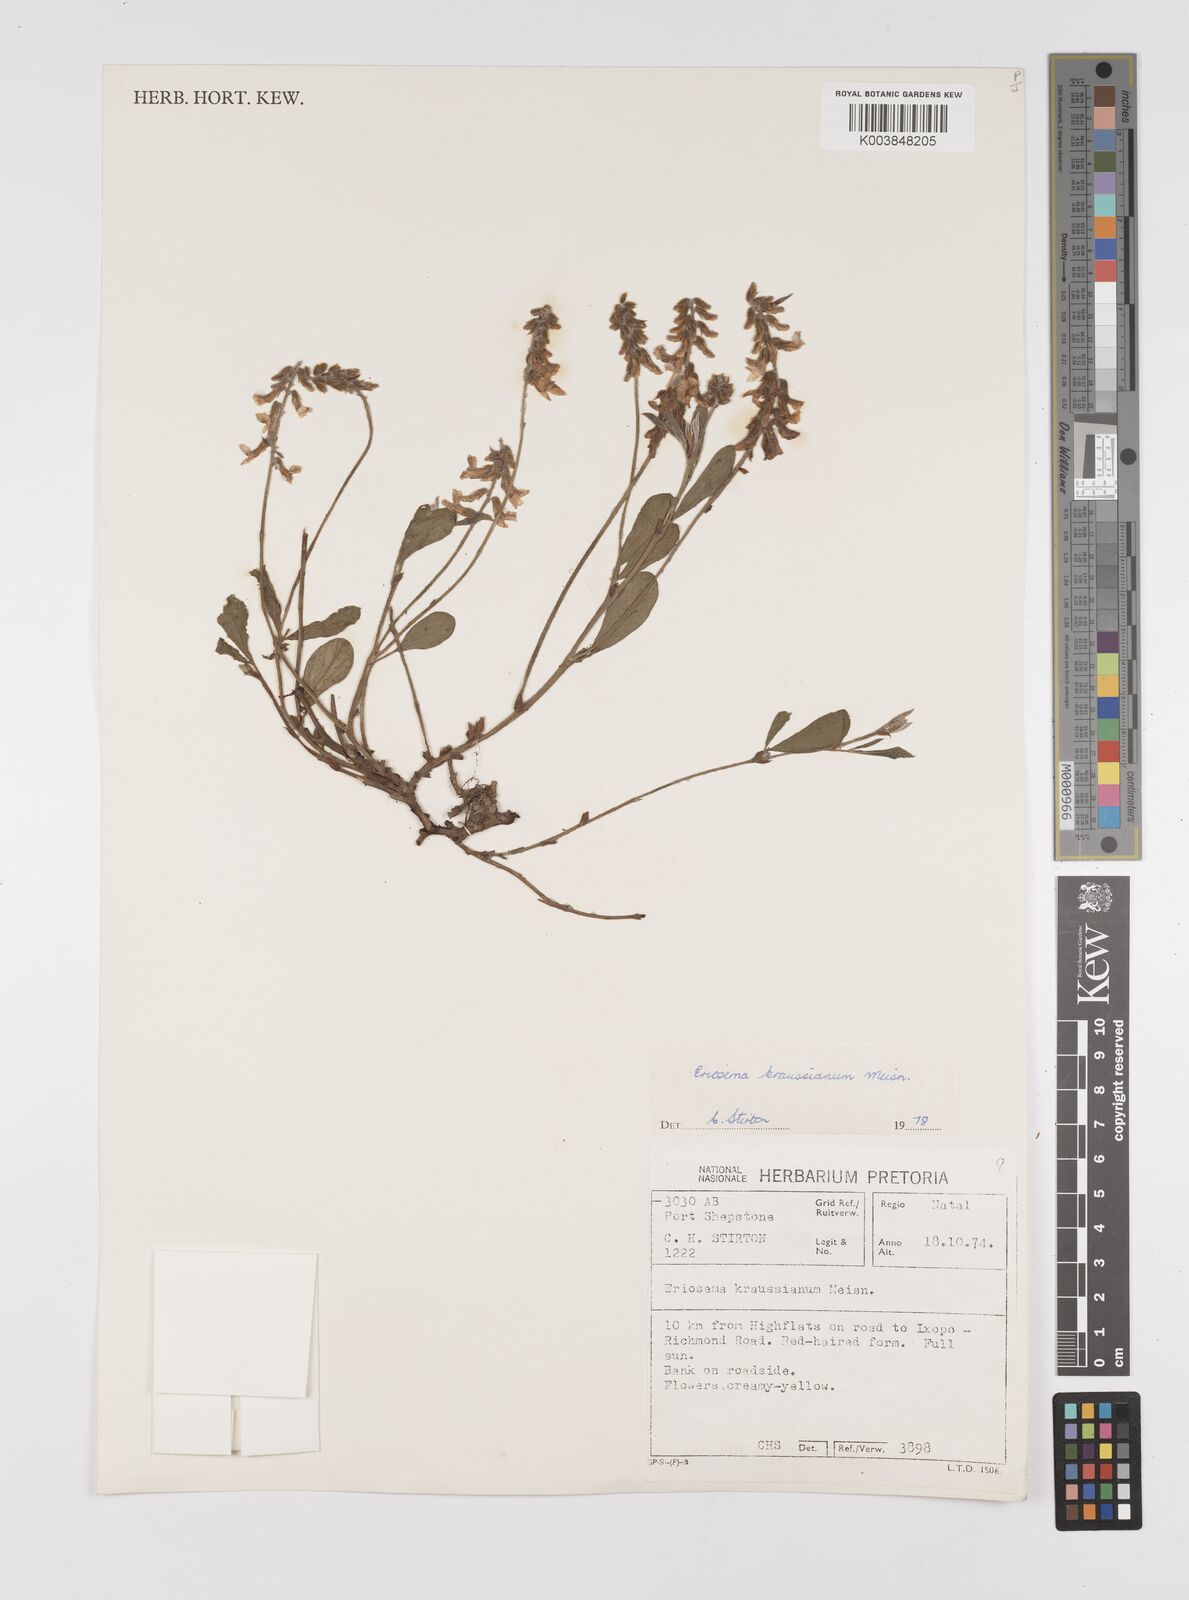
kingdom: Plantae
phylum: Tracheophyta
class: Magnoliopsida
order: Fabales
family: Fabaceae
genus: Eriosema
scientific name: Eriosema kraussianum
